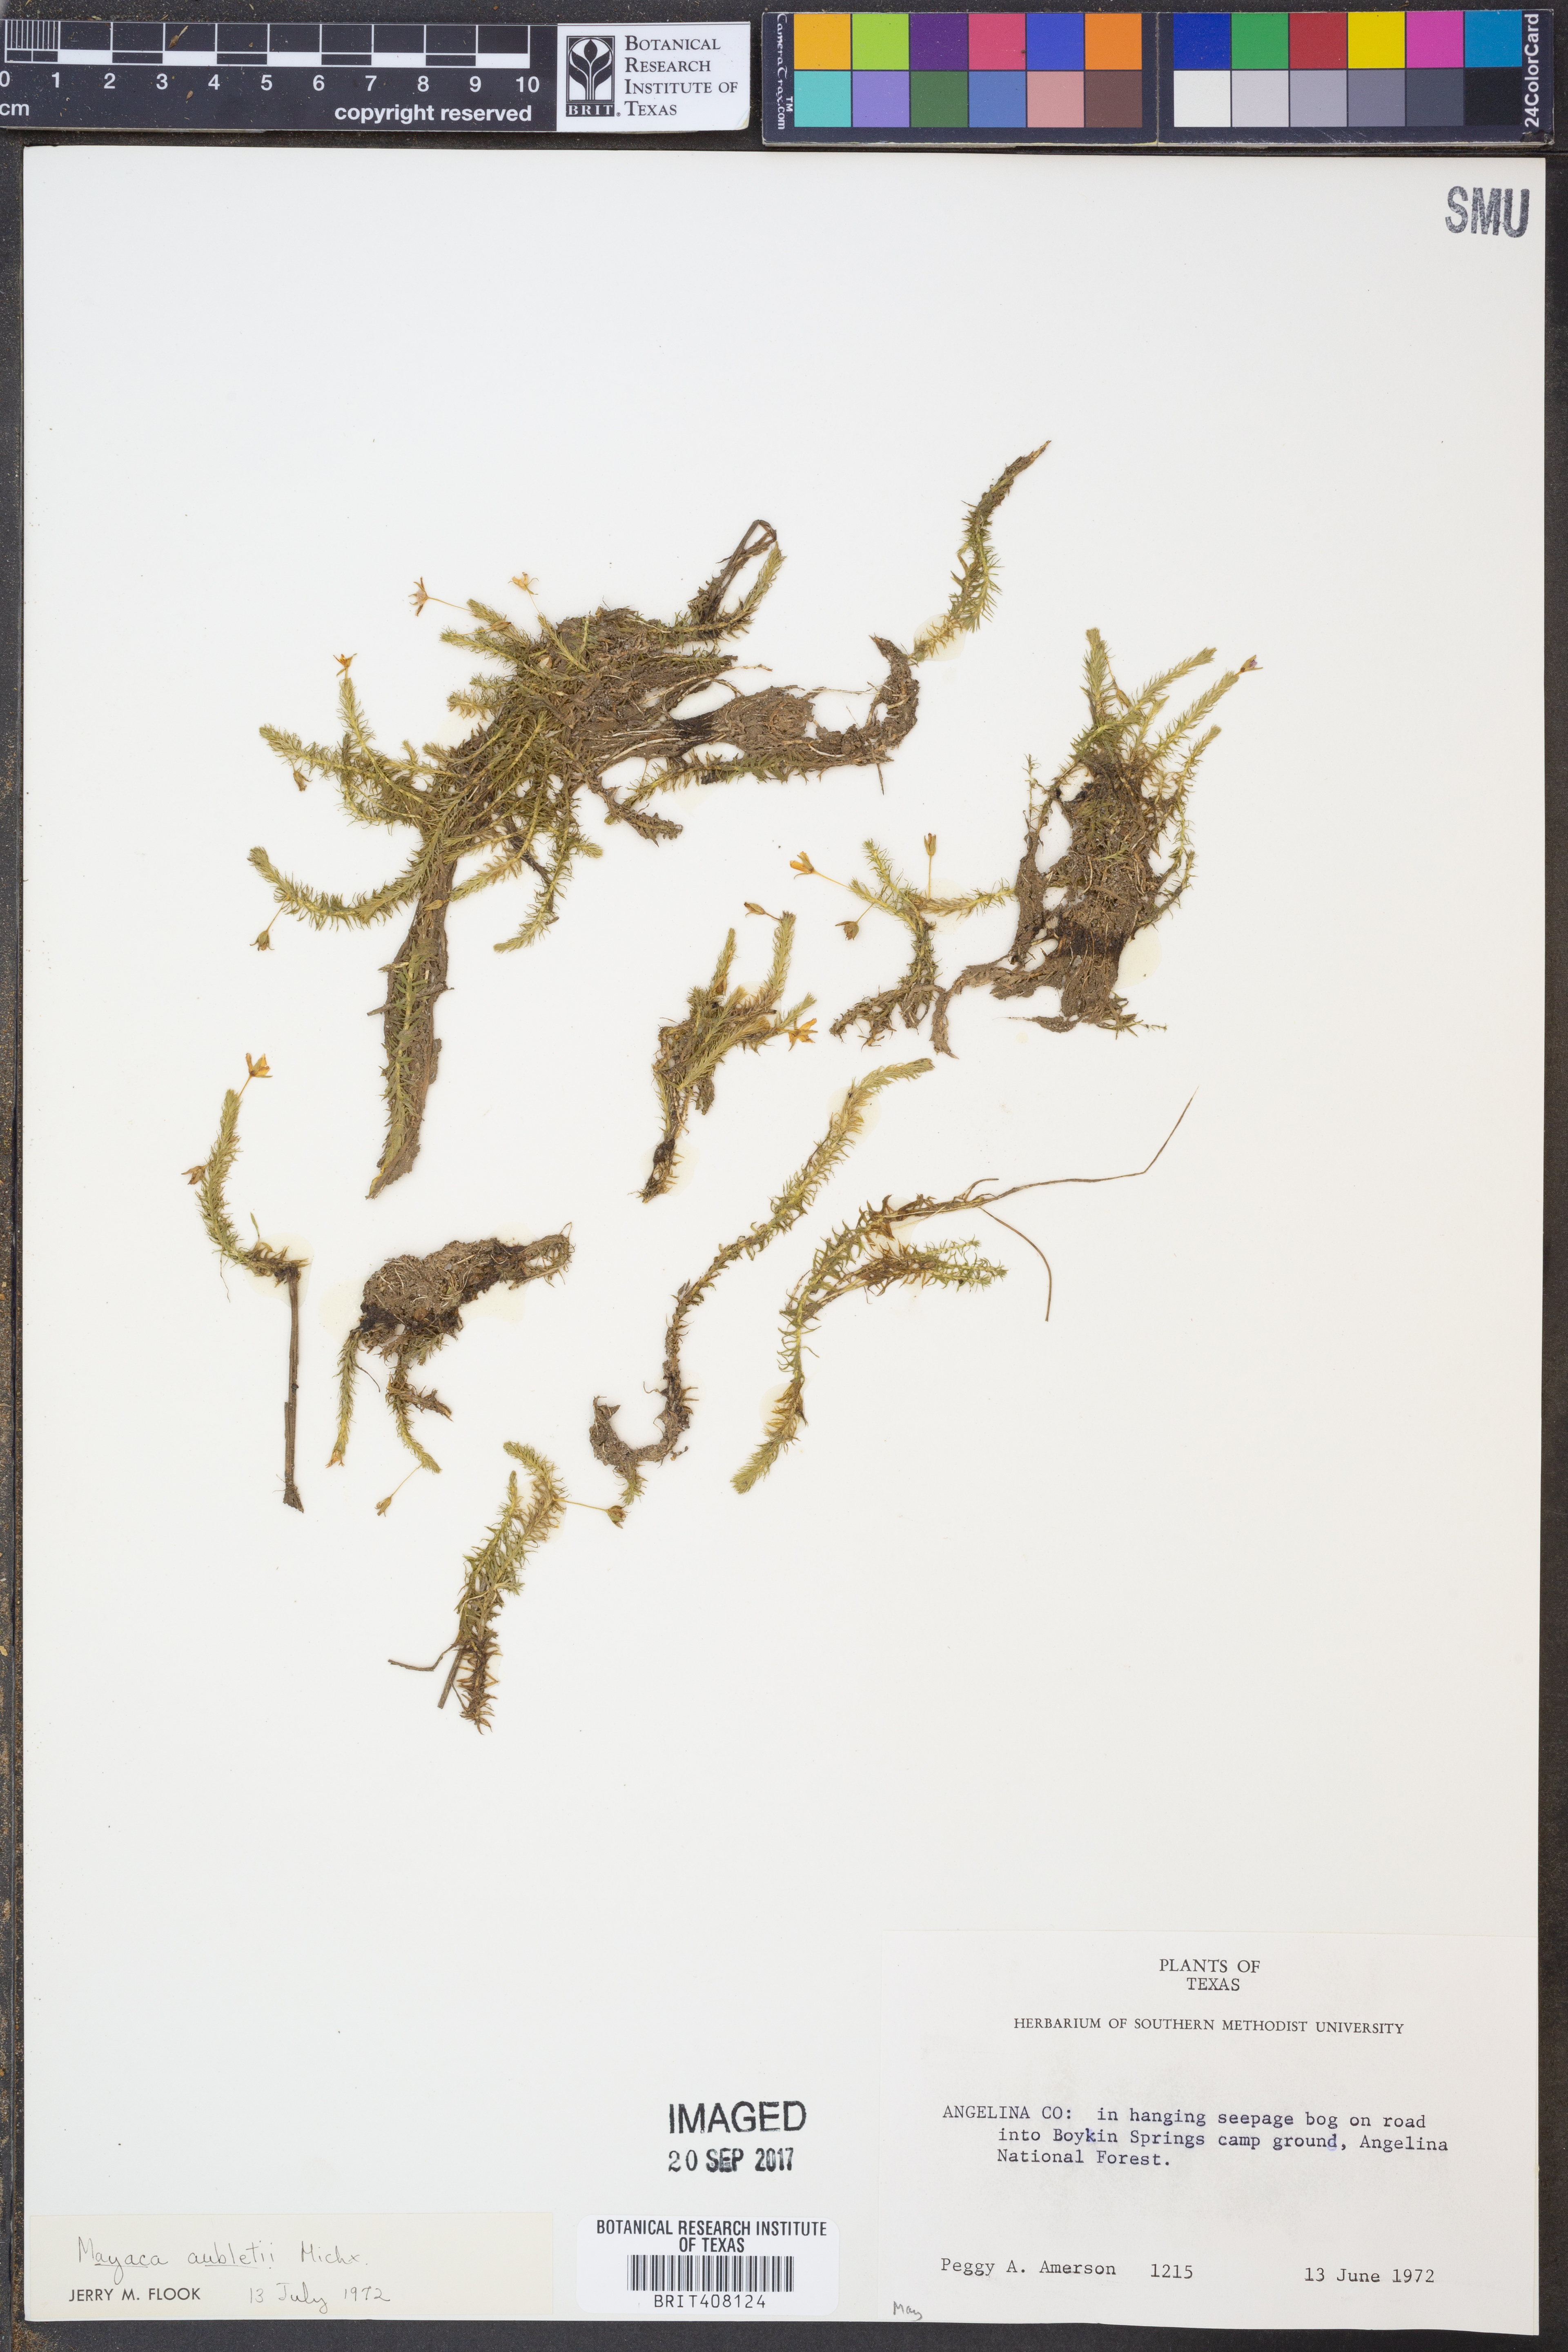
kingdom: Plantae
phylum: Tracheophyta
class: Liliopsida
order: Poales
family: Mayacaceae
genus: Mayaca
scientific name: Mayaca fluviatilis
